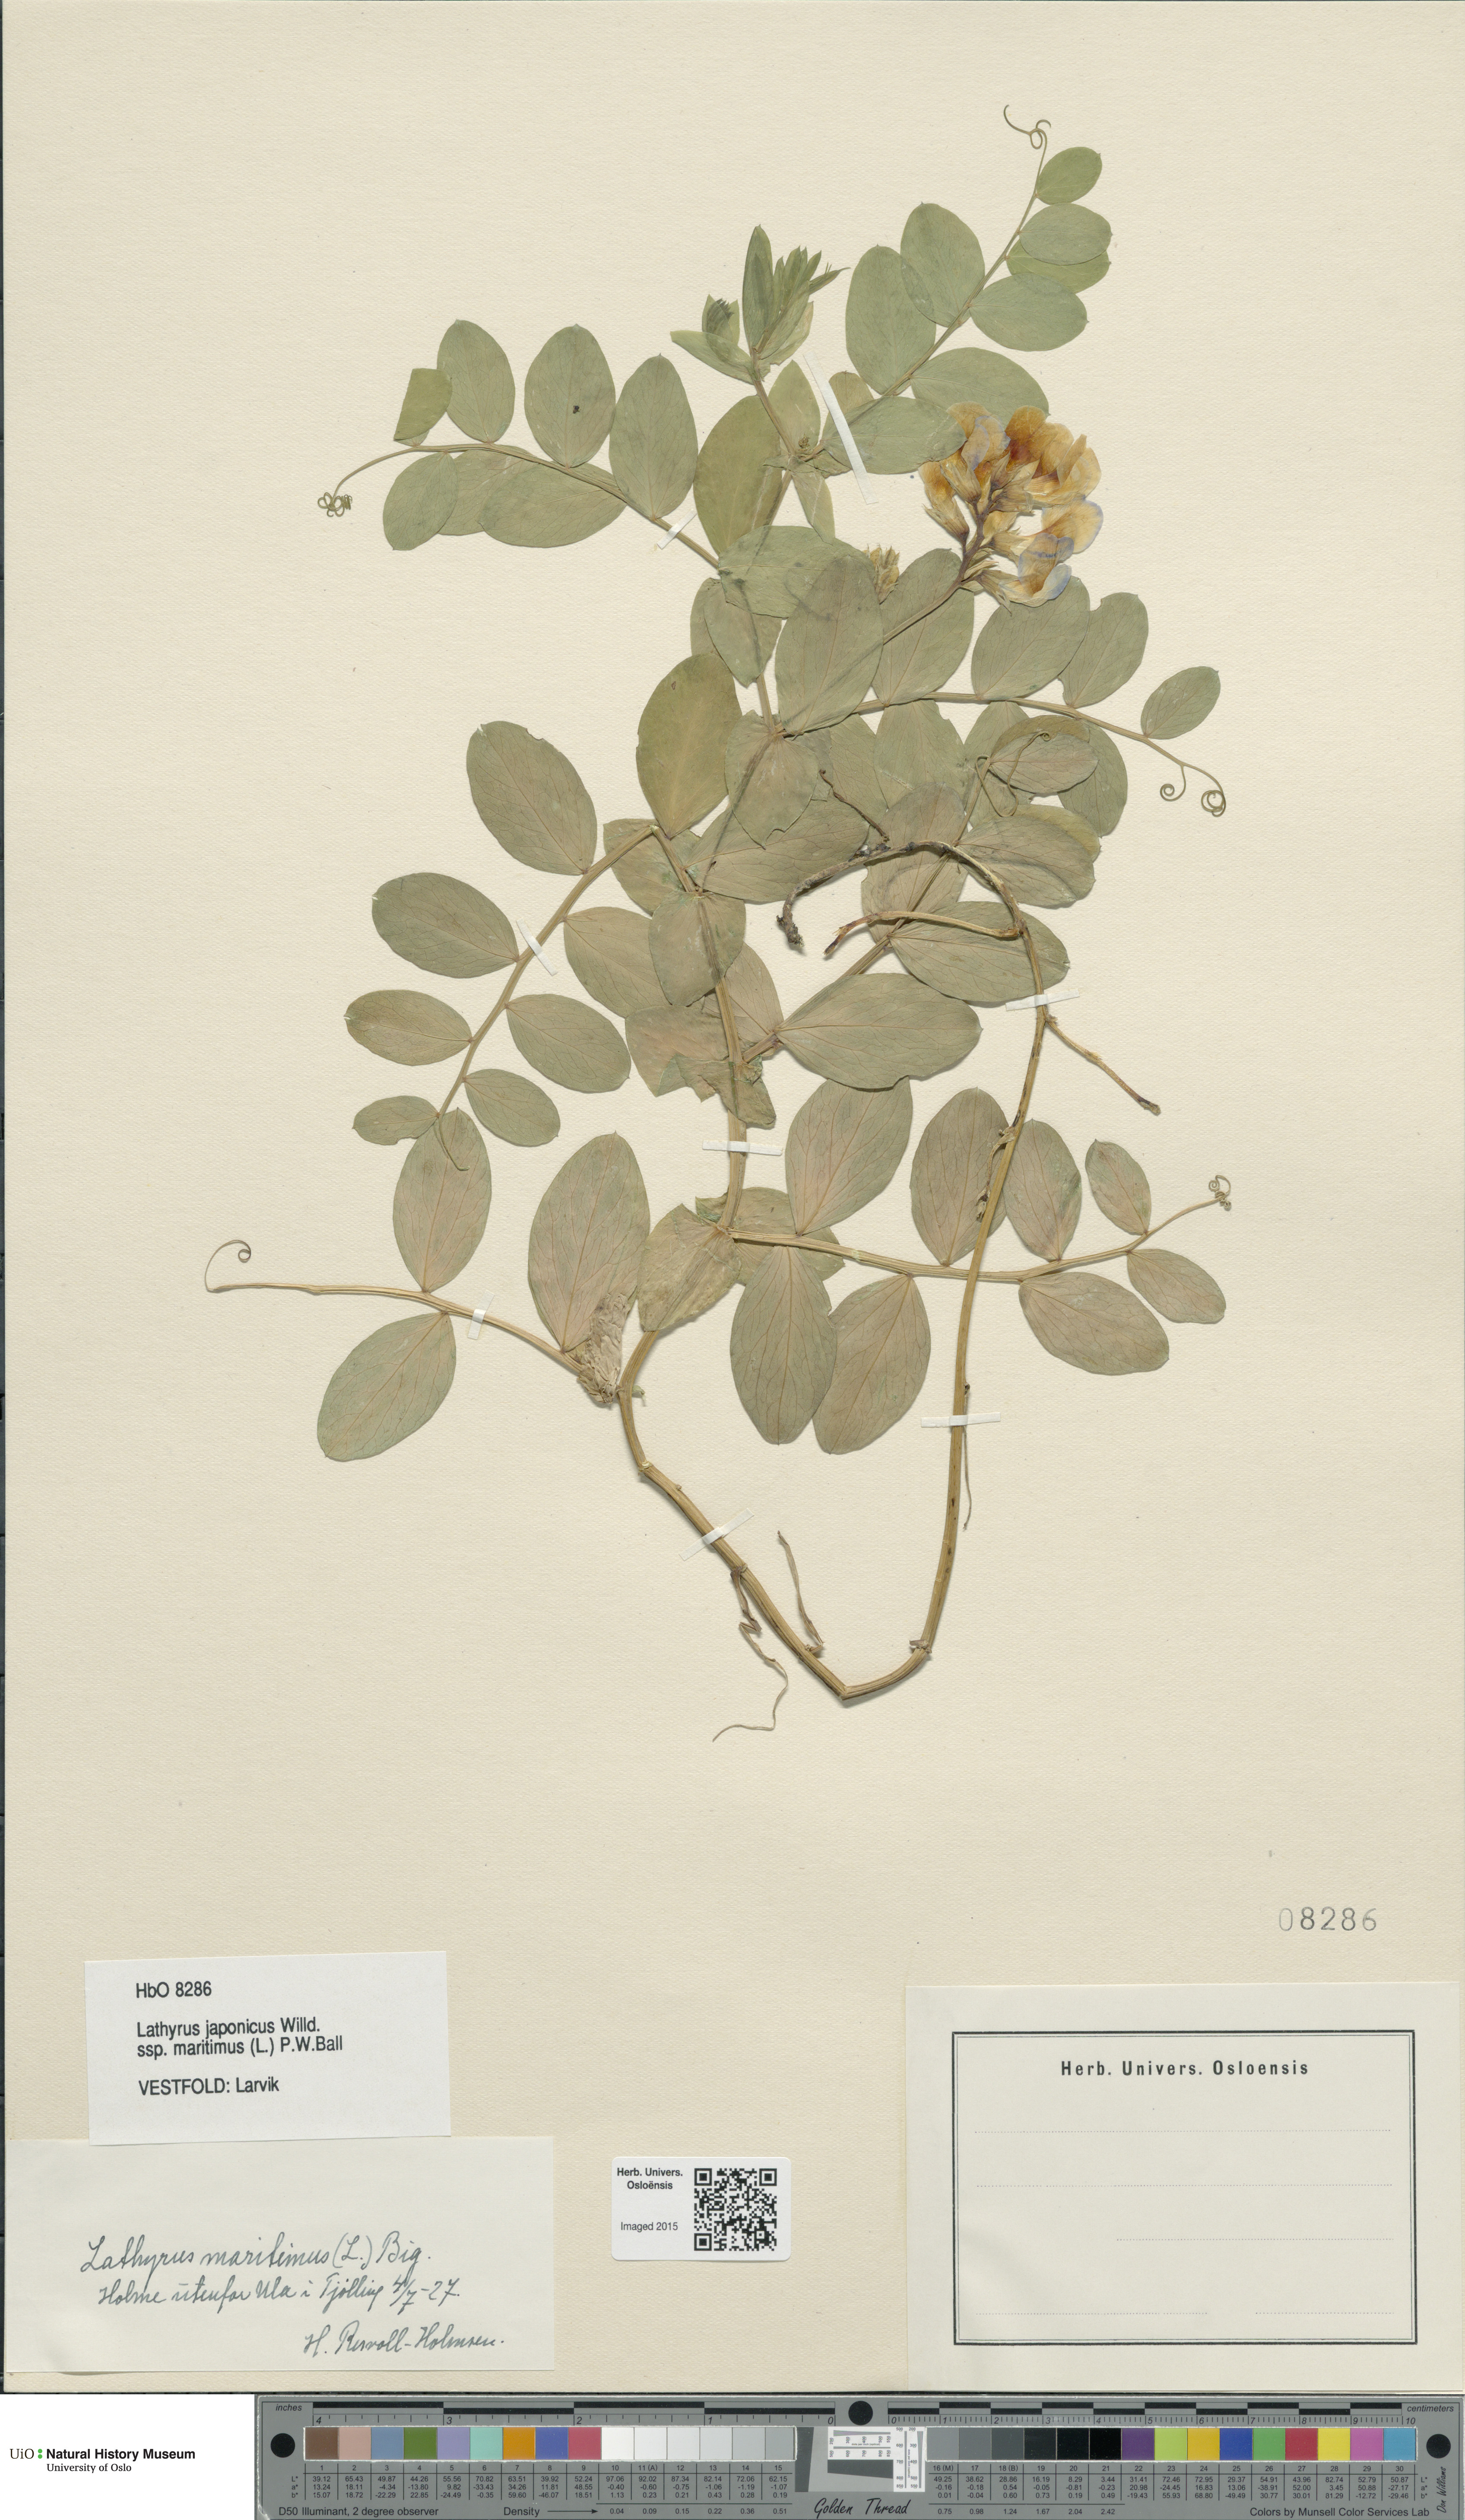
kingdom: Plantae
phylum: Tracheophyta
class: Magnoliopsida
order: Fabales
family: Fabaceae
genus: Lathyrus
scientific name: Lathyrus japonicus
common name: Sea pea
